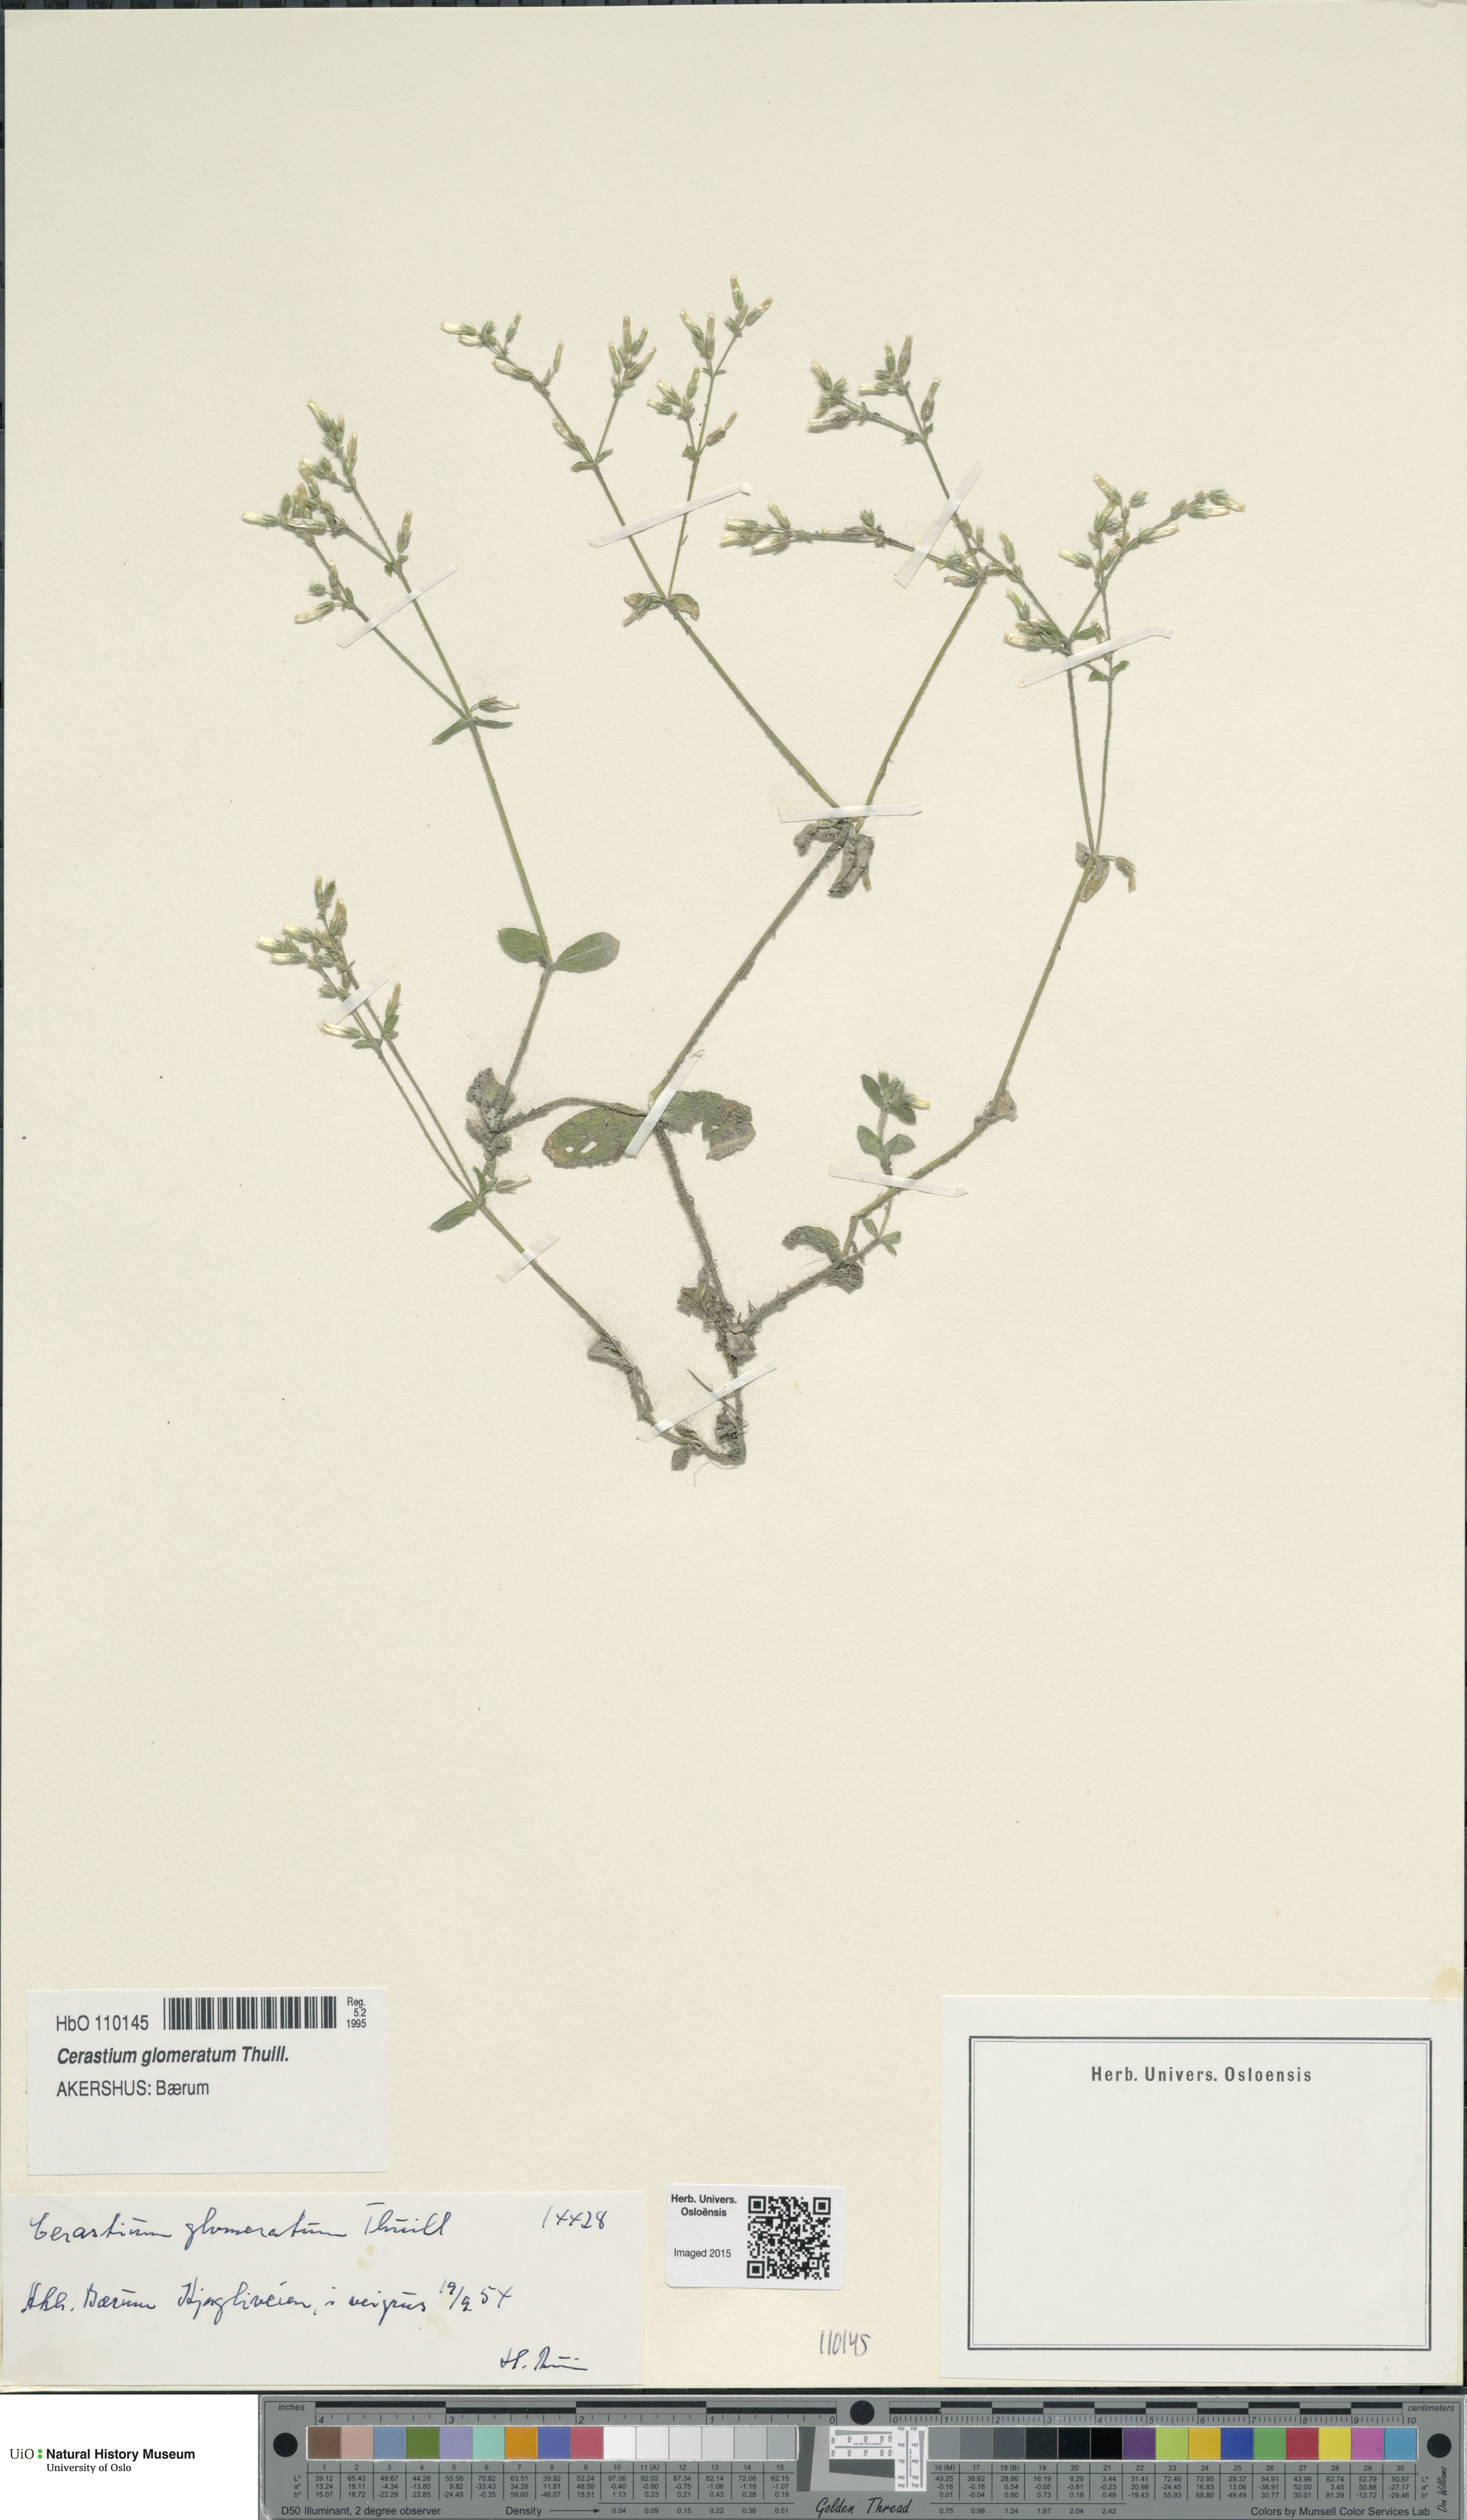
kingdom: Plantae
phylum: Tracheophyta
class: Magnoliopsida
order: Caryophyllales
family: Caryophyllaceae
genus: Cerastium
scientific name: Cerastium glomeratum
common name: Sticky chickweed
